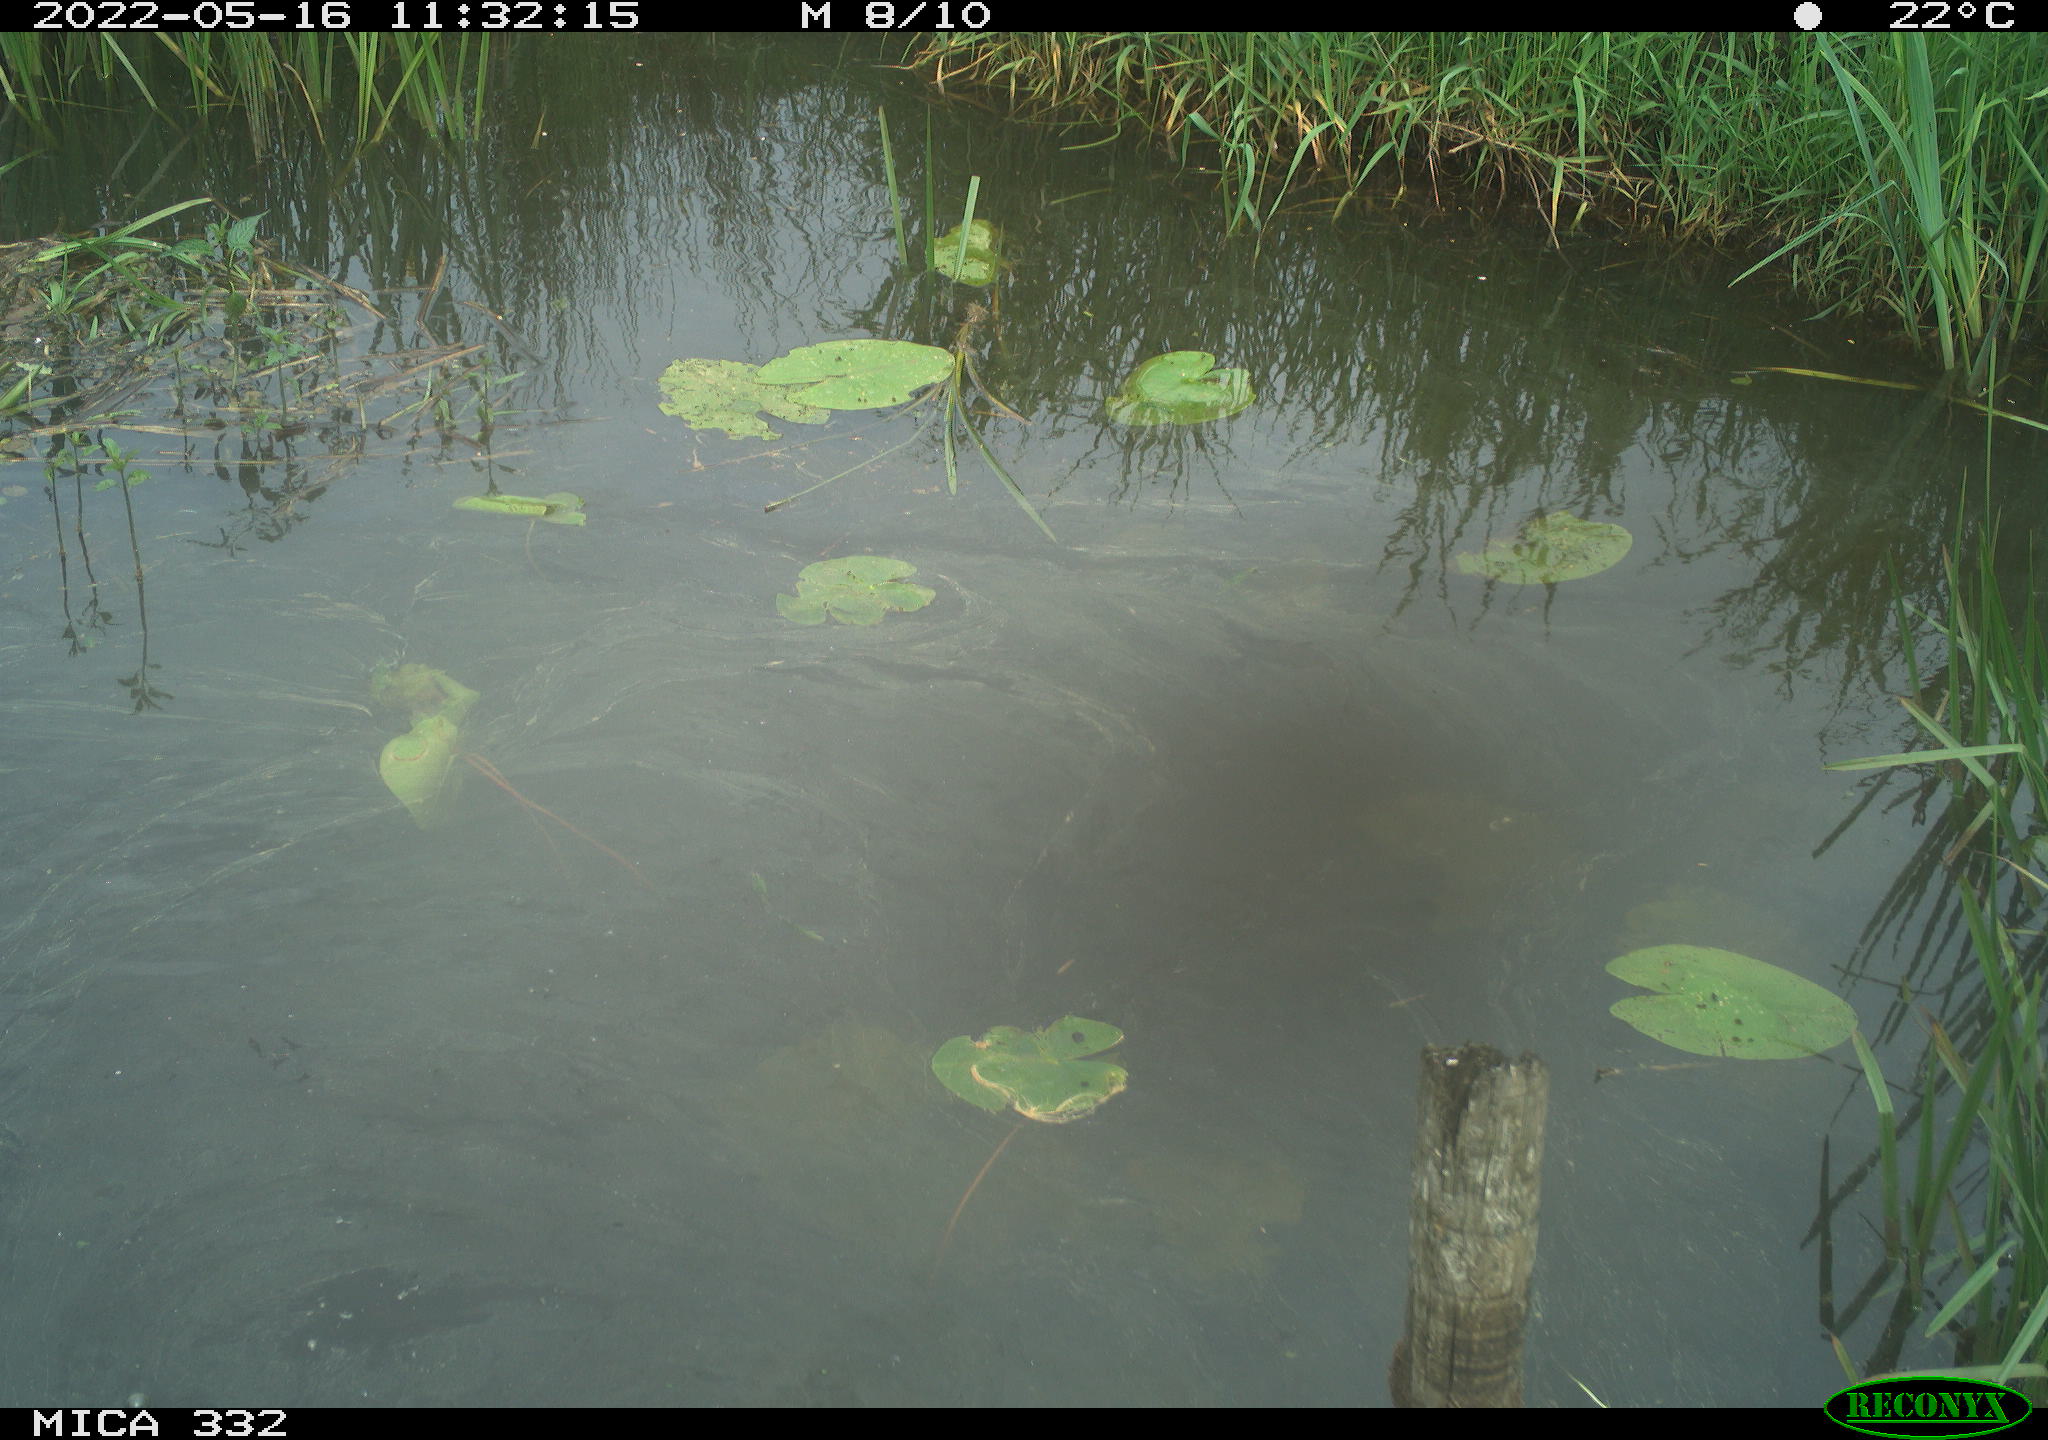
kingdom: Animalia
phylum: Chordata
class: Aves
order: Anseriformes
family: Anatidae
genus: Anas
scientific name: Anas platyrhynchos
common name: Mallard
